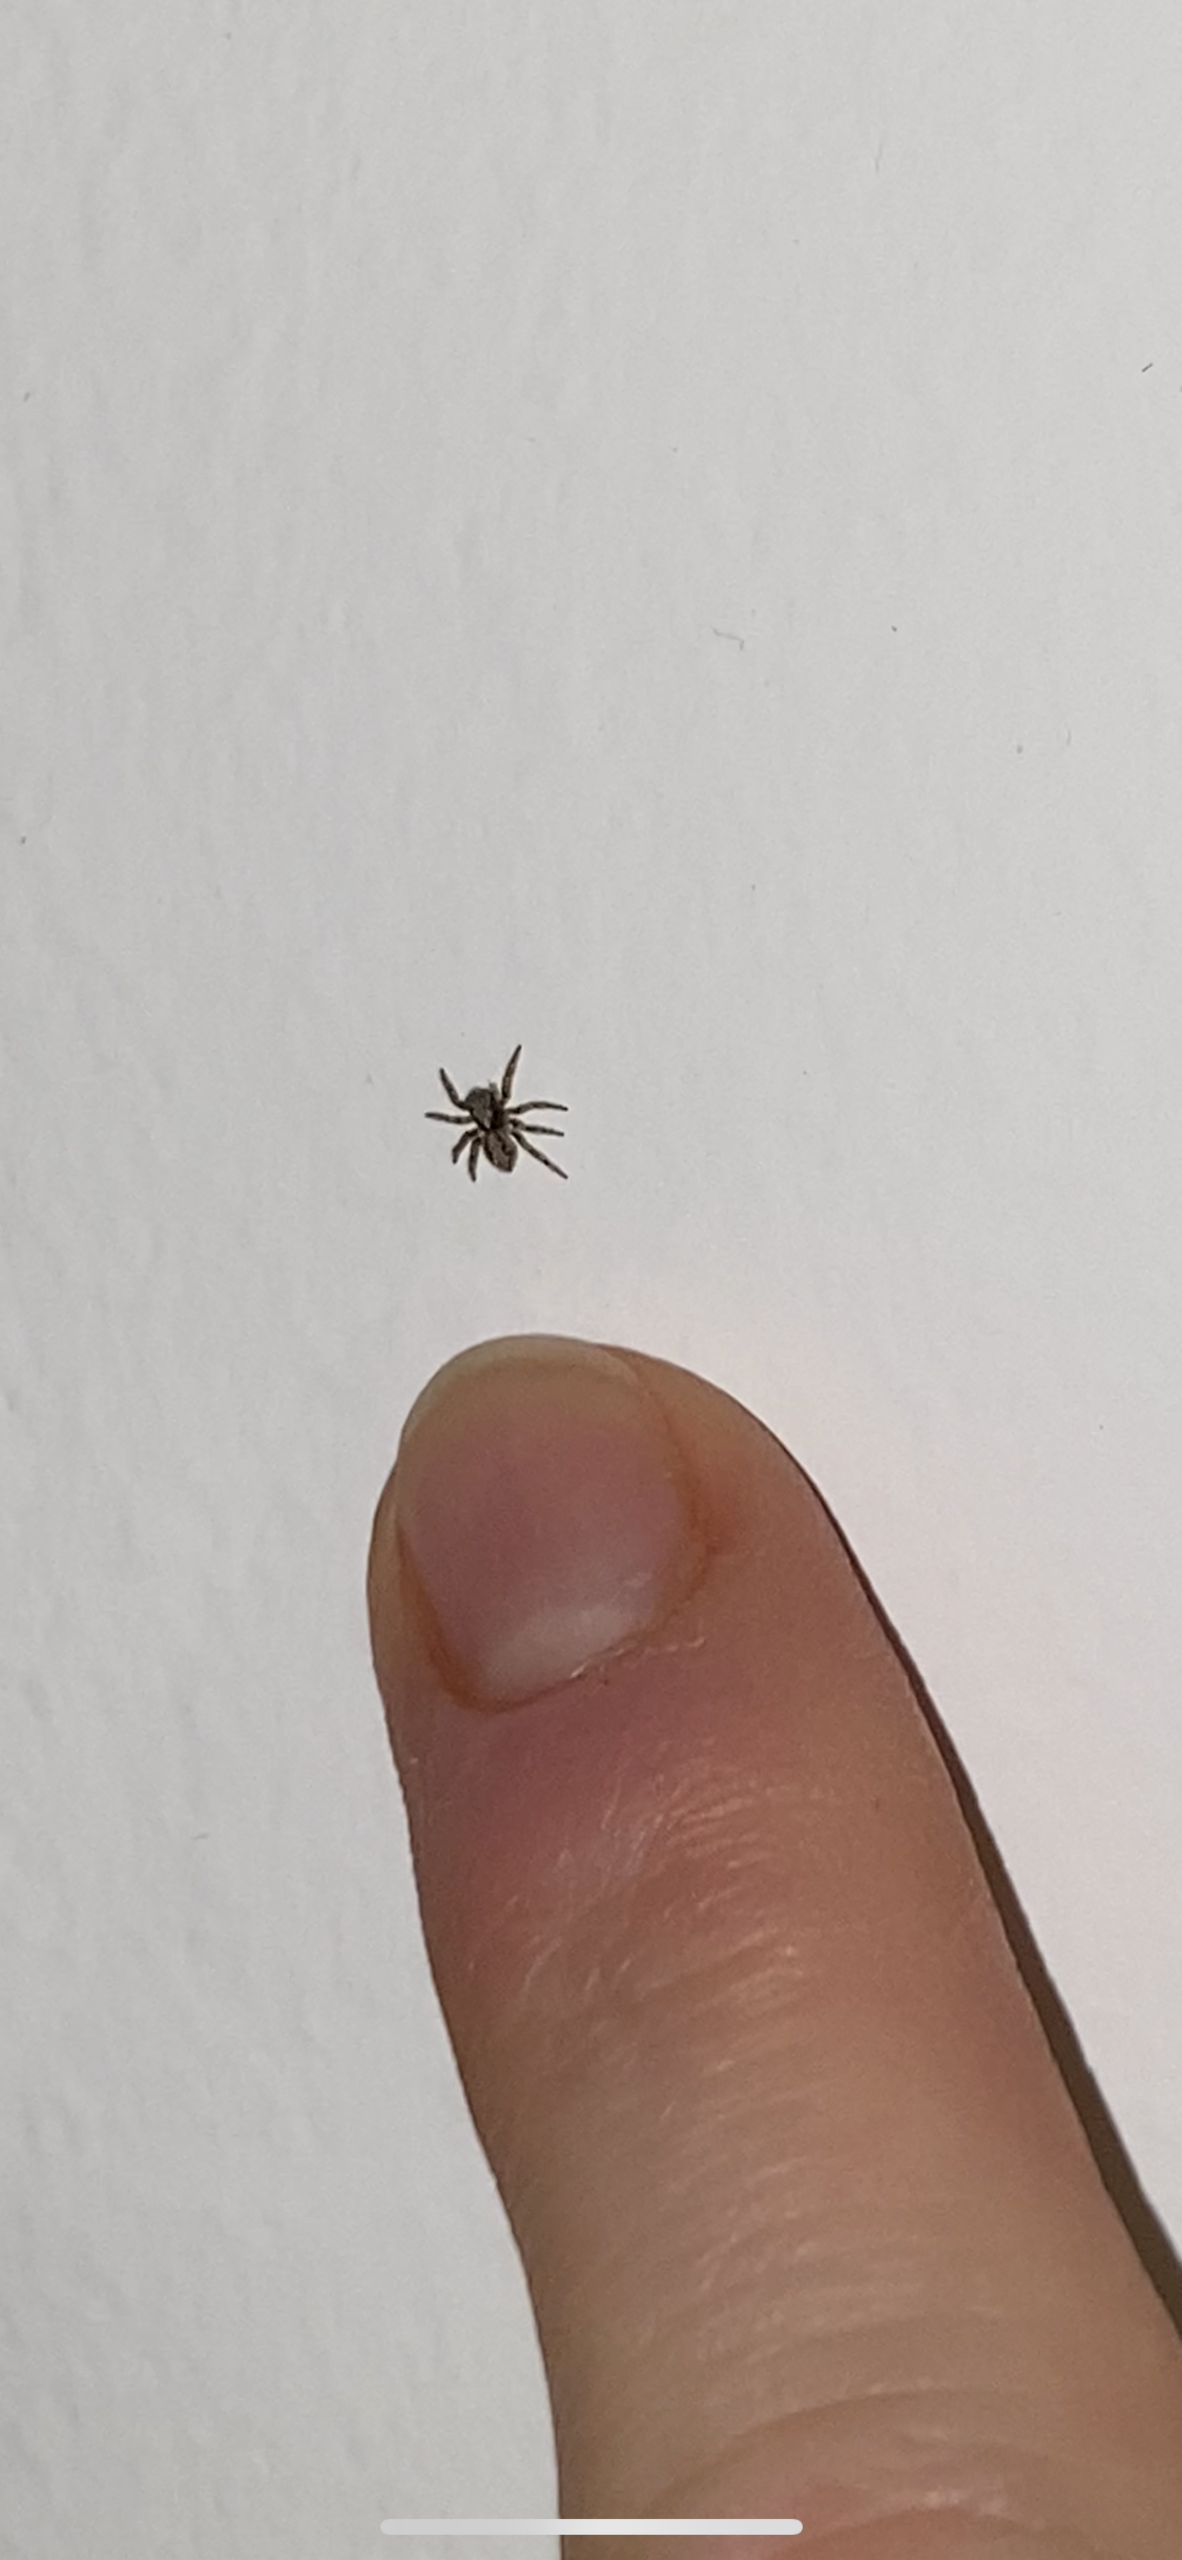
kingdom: Animalia
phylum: Arthropoda
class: Arachnida
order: Araneae
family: Salticidae
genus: Pseudeuophrys
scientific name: Pseudeuophrys lanigera
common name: Vinduesspringer
